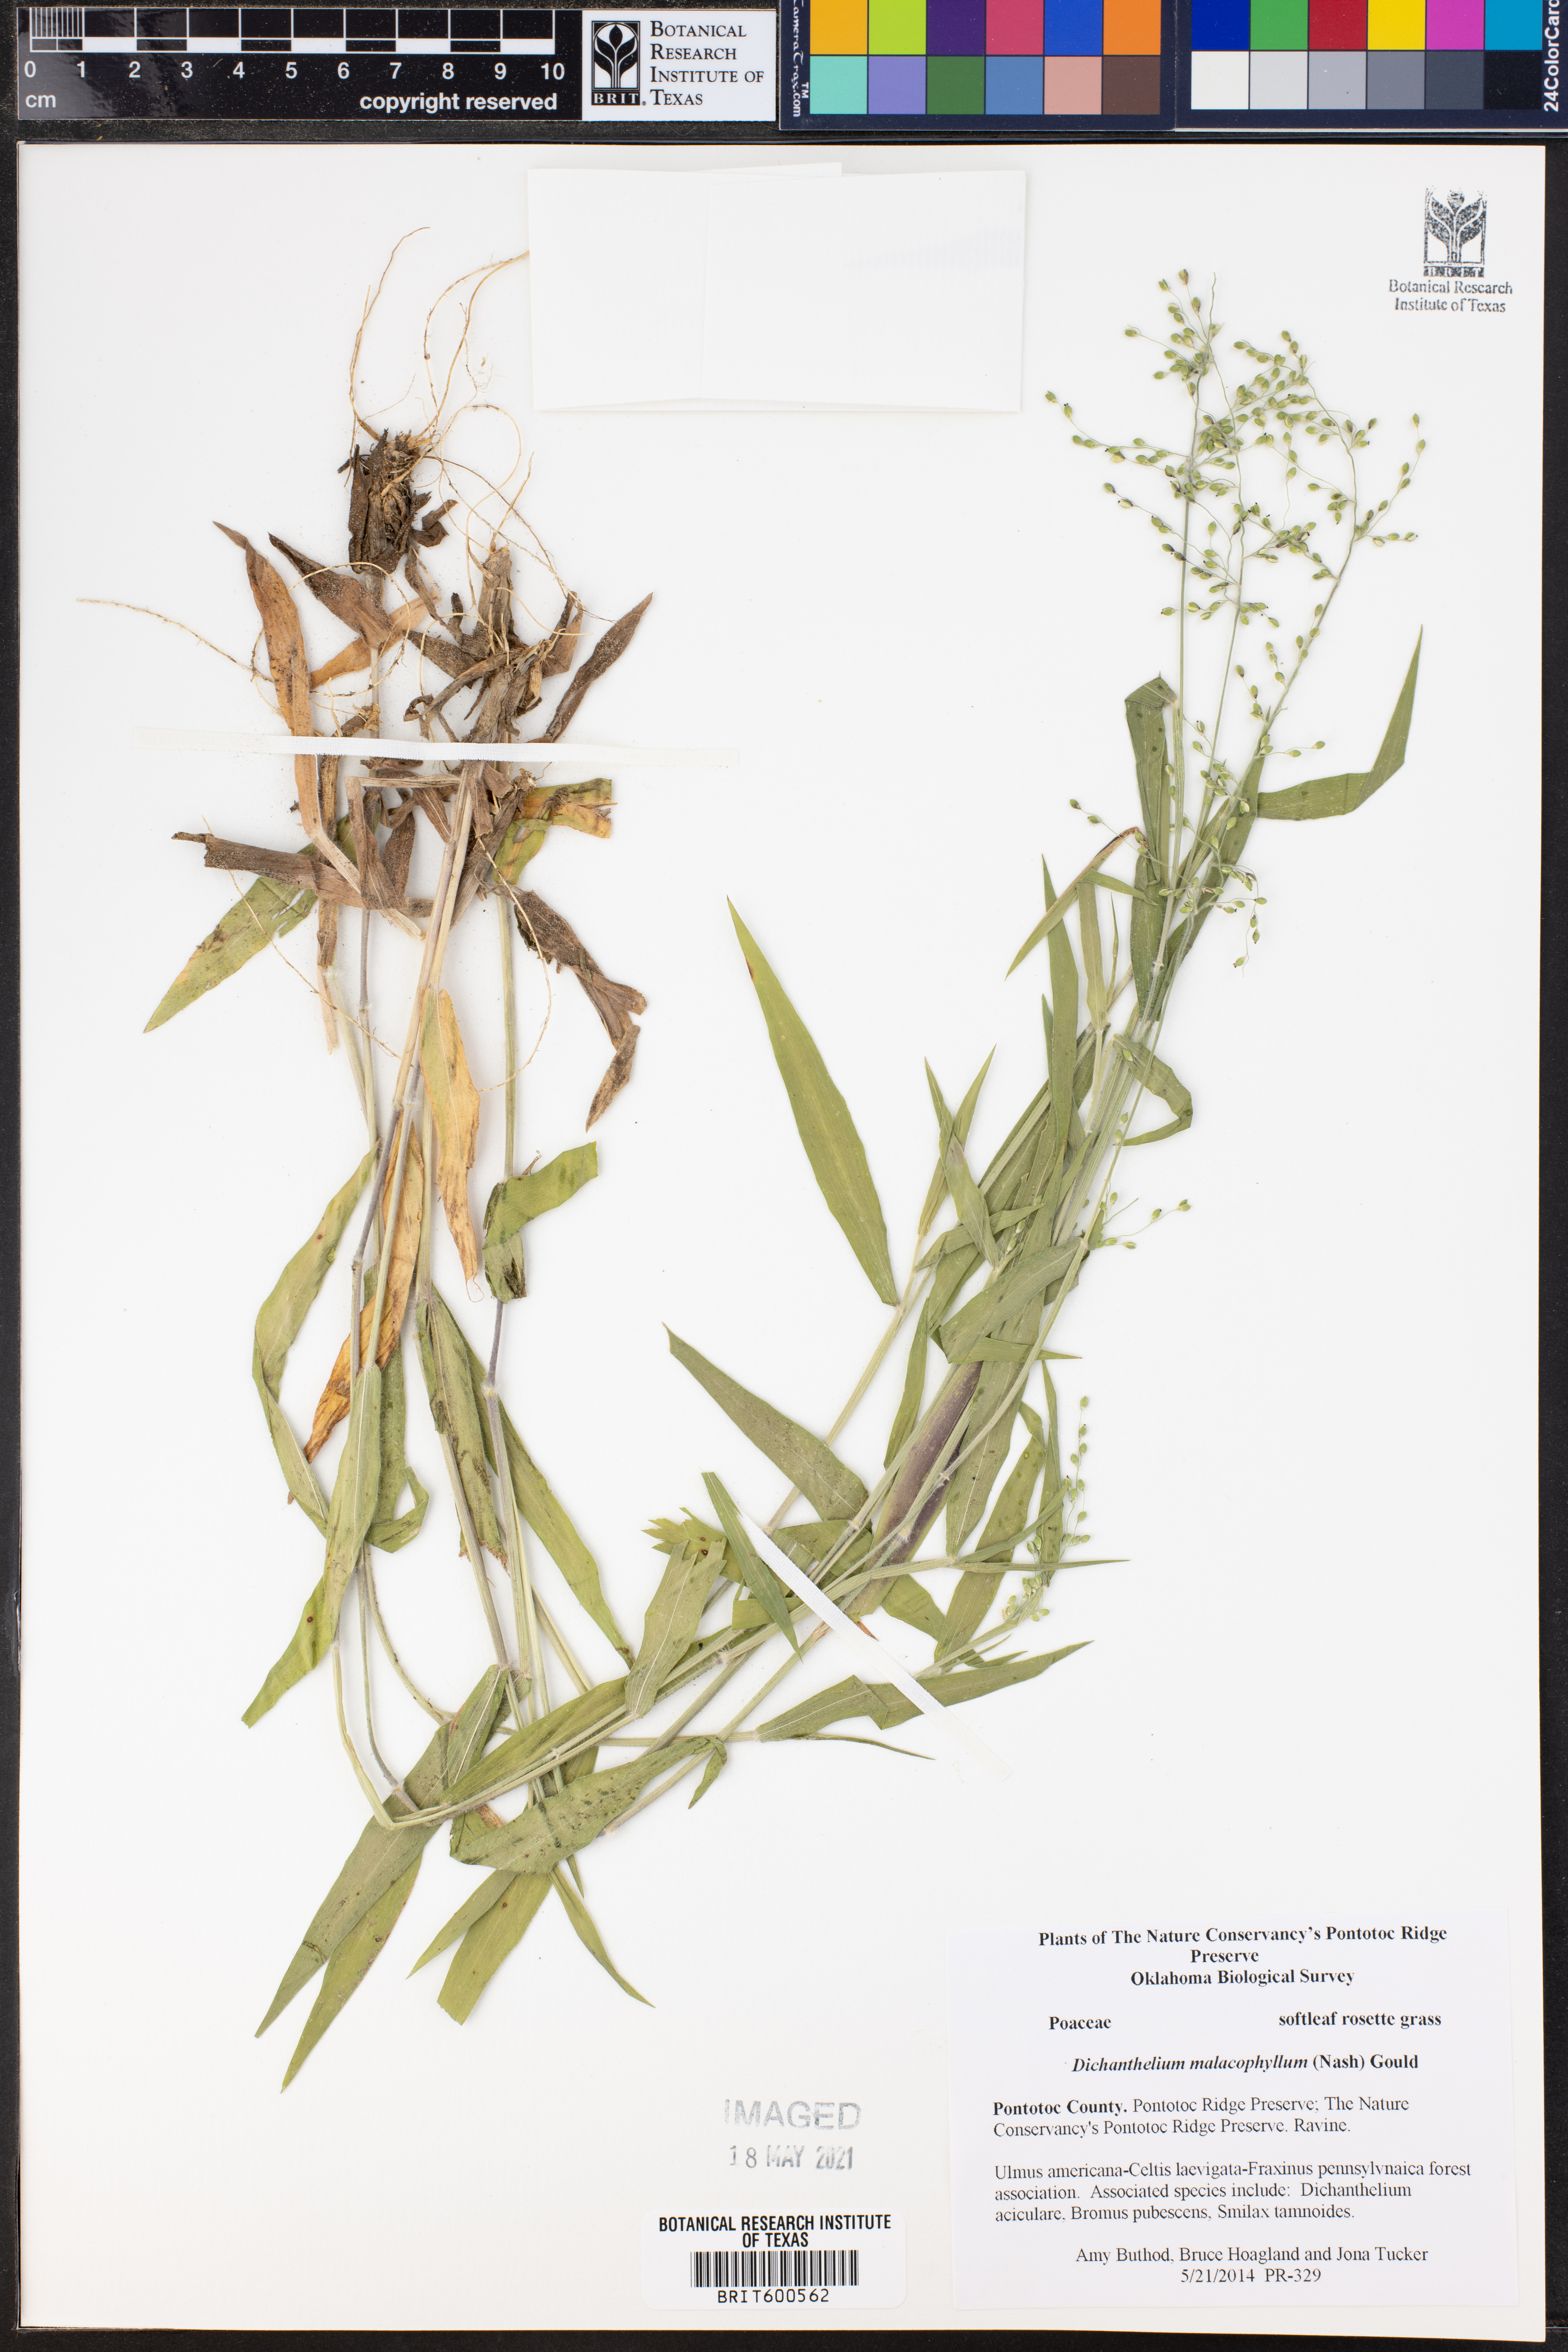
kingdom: Plantae
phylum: Tracheophyta
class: Liliopsida
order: Poales
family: Poaceae
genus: Dichanthelium
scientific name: Dichanthelium malacophyllum
